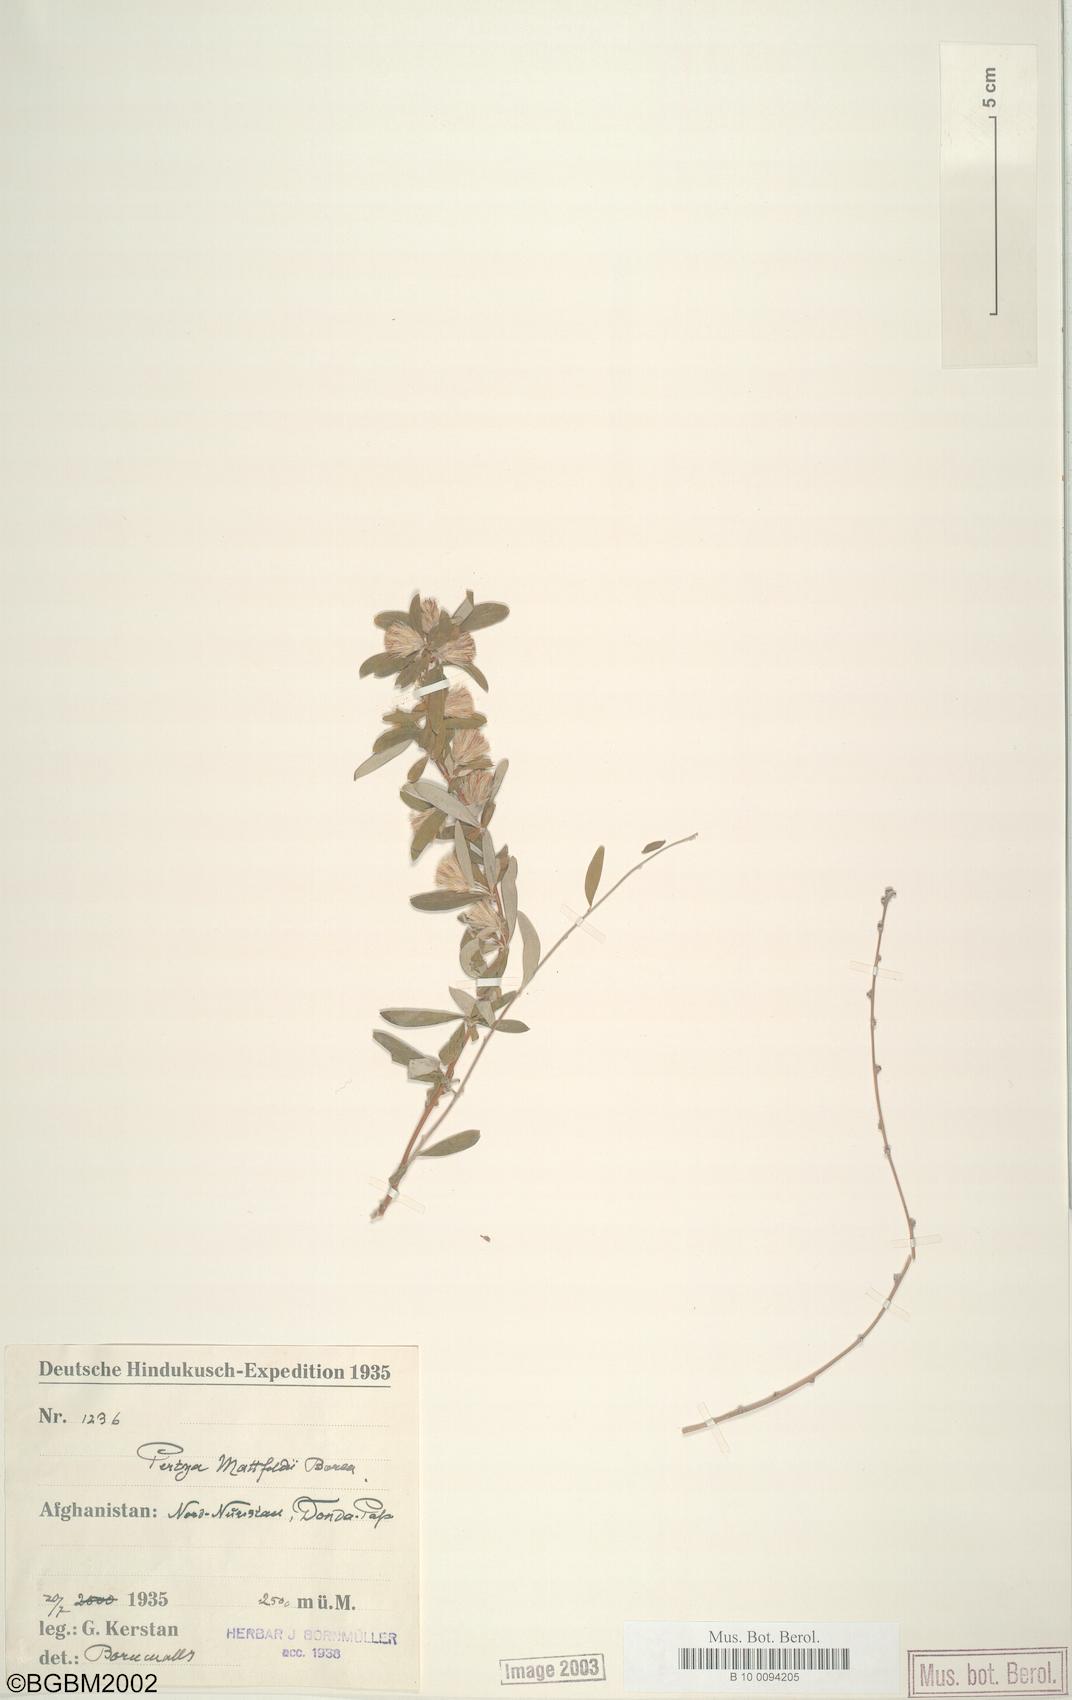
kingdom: Plantae
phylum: Tracheophyta
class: Magnoliopsida
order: Asterales
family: Asteraceae
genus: Pertya
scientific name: Pertya aitchisonii
